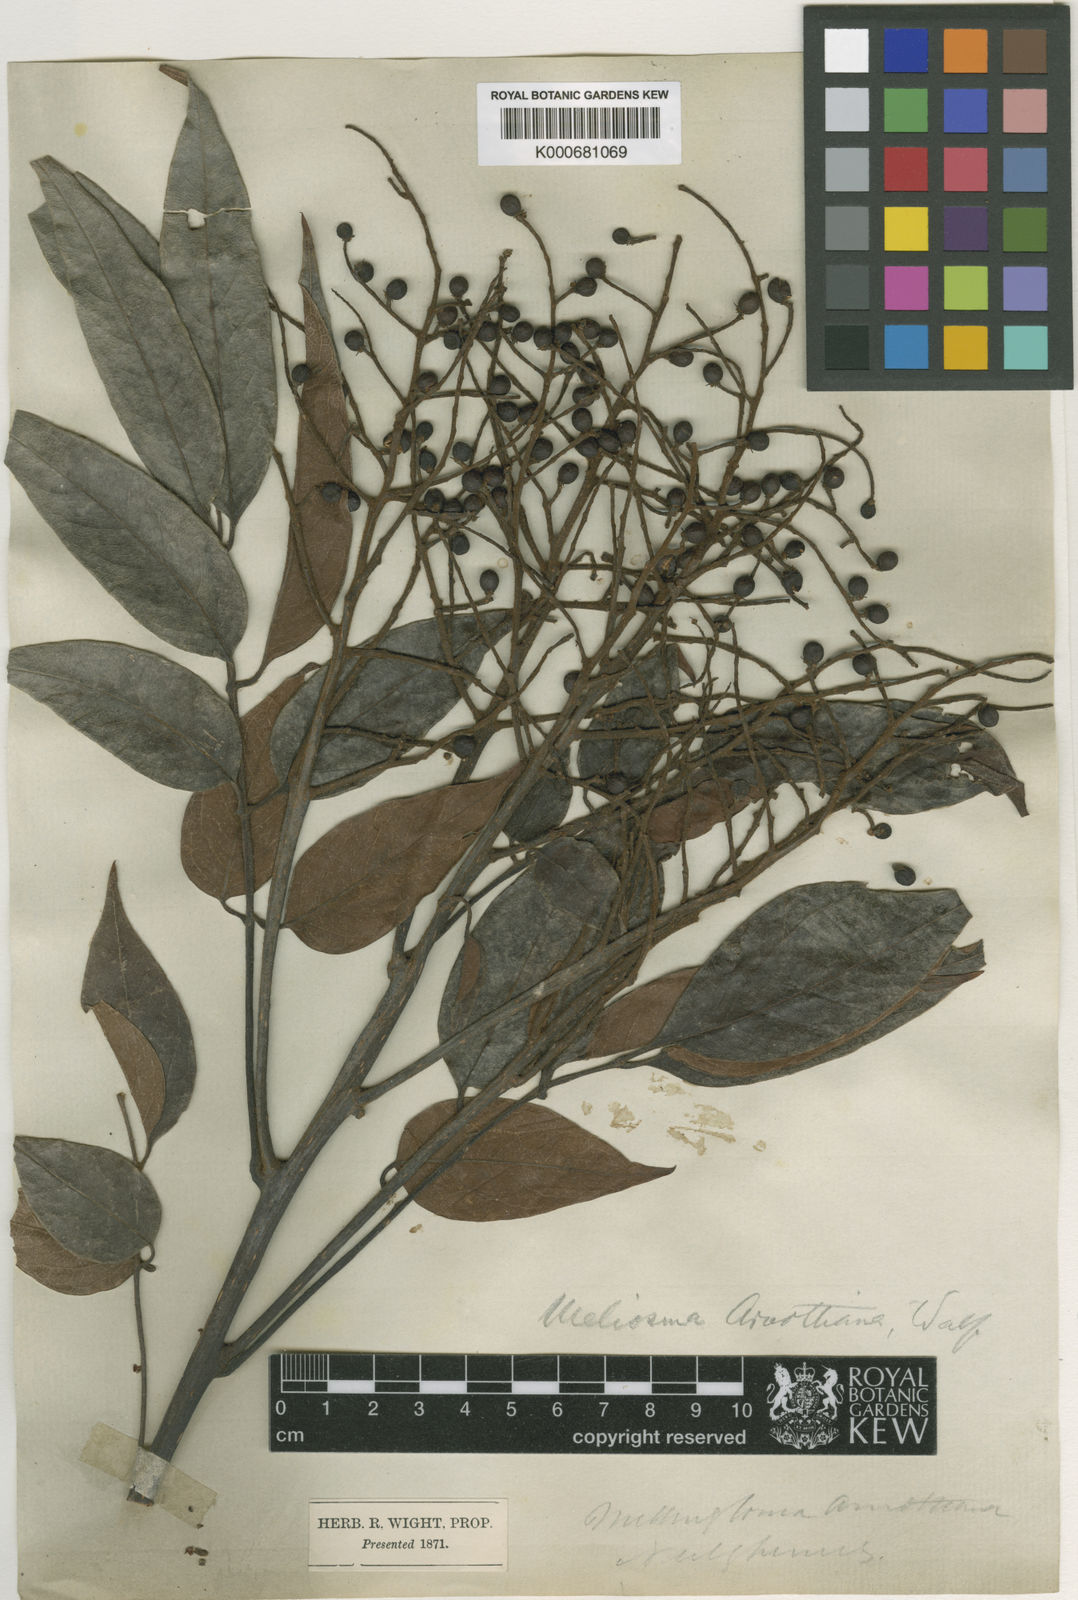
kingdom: Plantae
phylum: Tracheophyta
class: Magnoliopsida
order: Proteales
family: Sabiaceae
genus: Meliosma
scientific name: Meliosma pinnata
